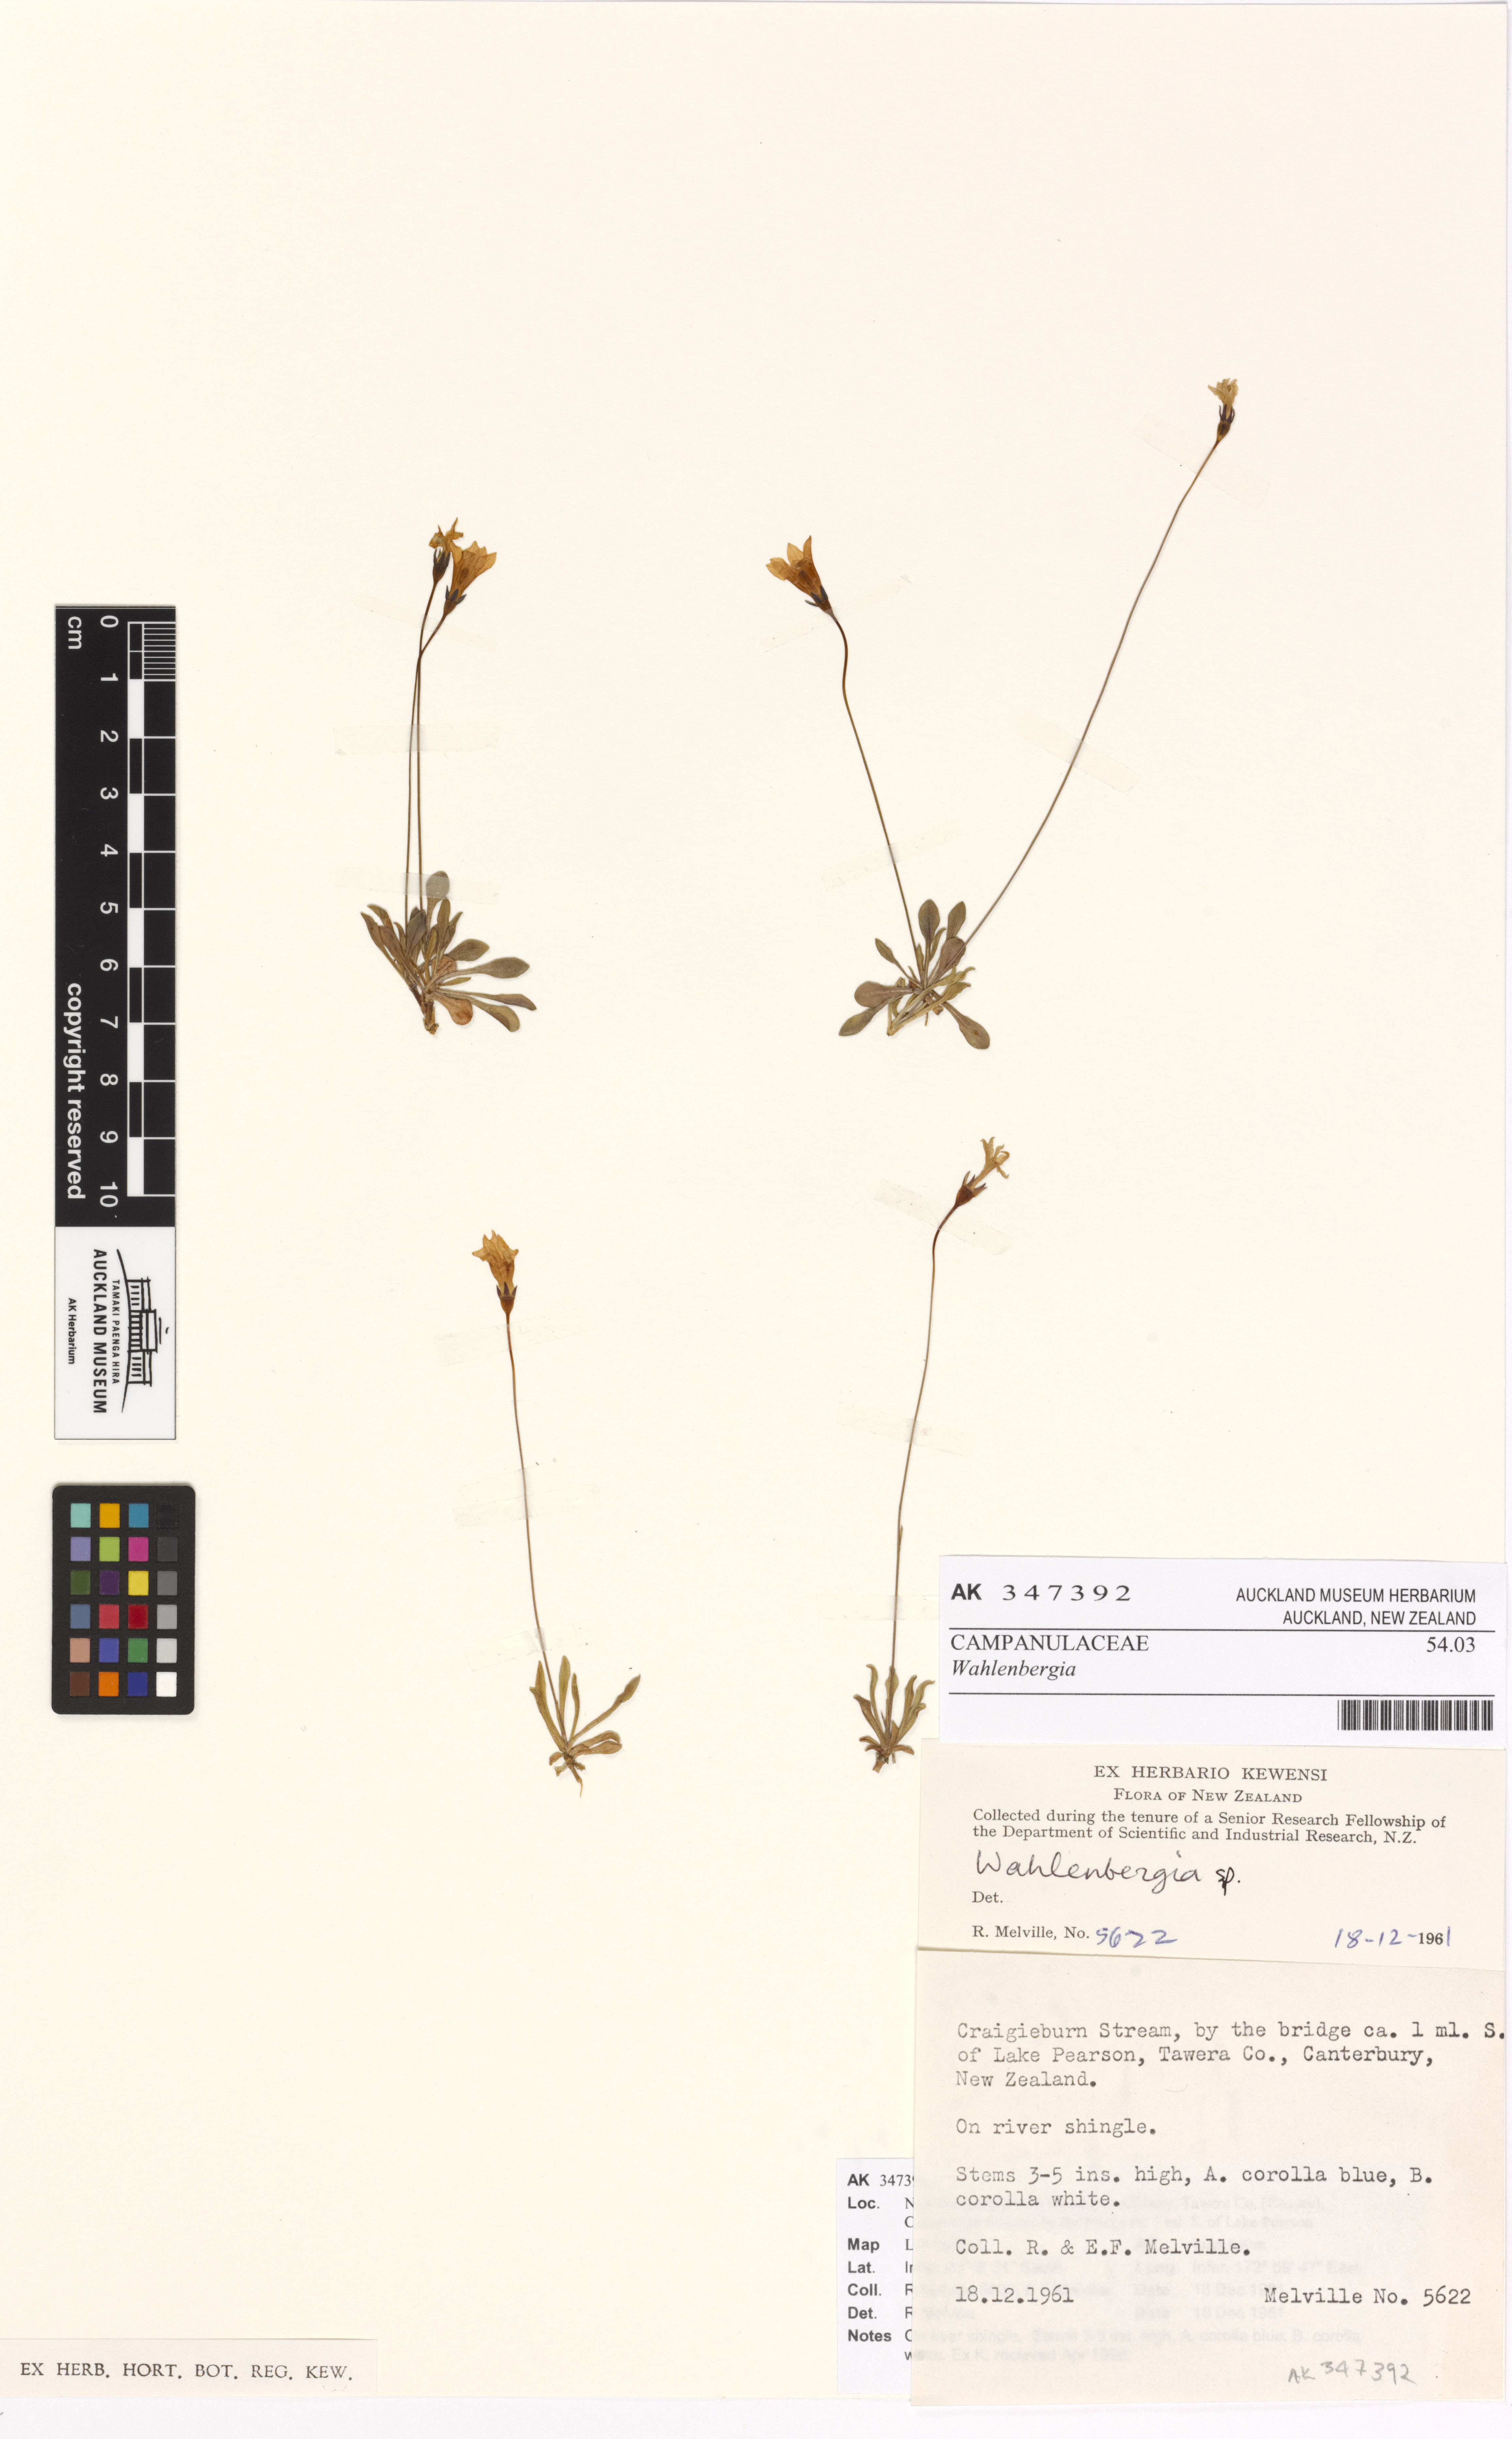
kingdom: Plantae
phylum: Tracheophyta
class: Magnoliopsida
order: Asterales
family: Campanulaceae
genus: Wahlenbergia
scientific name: Wahlenbergia
